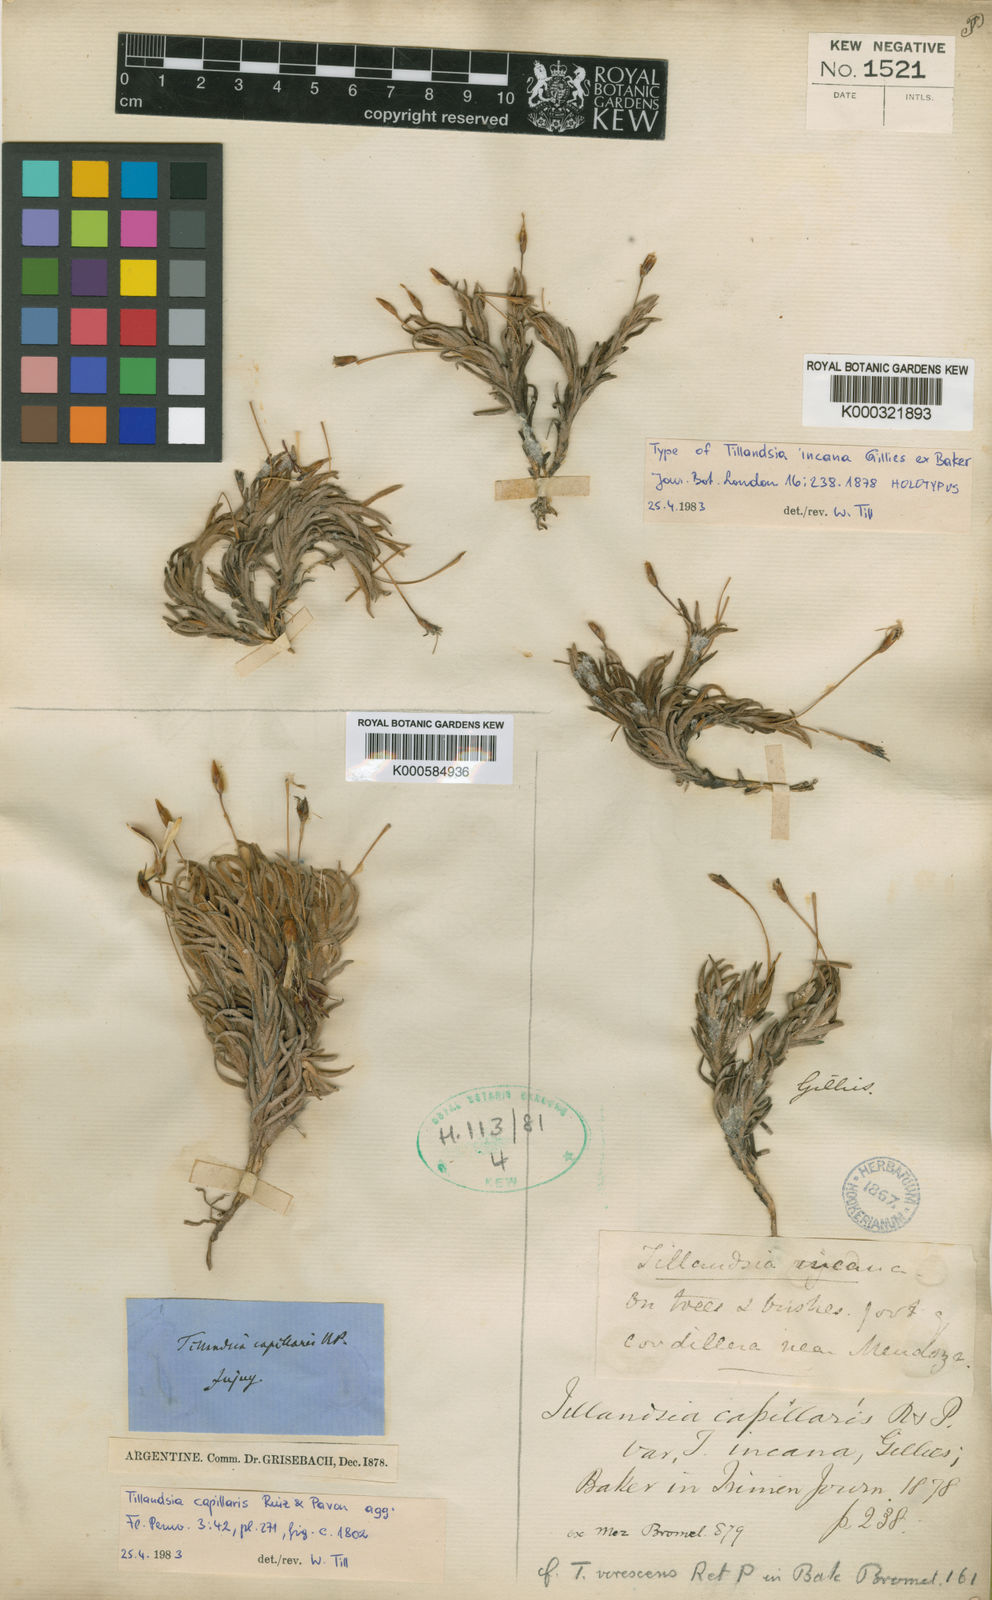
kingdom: Plantae
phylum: Tracheophyta
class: Liliopsida
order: Poales
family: Bromeliaceae
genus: Tillandsia
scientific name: Tillandsia capillaris
